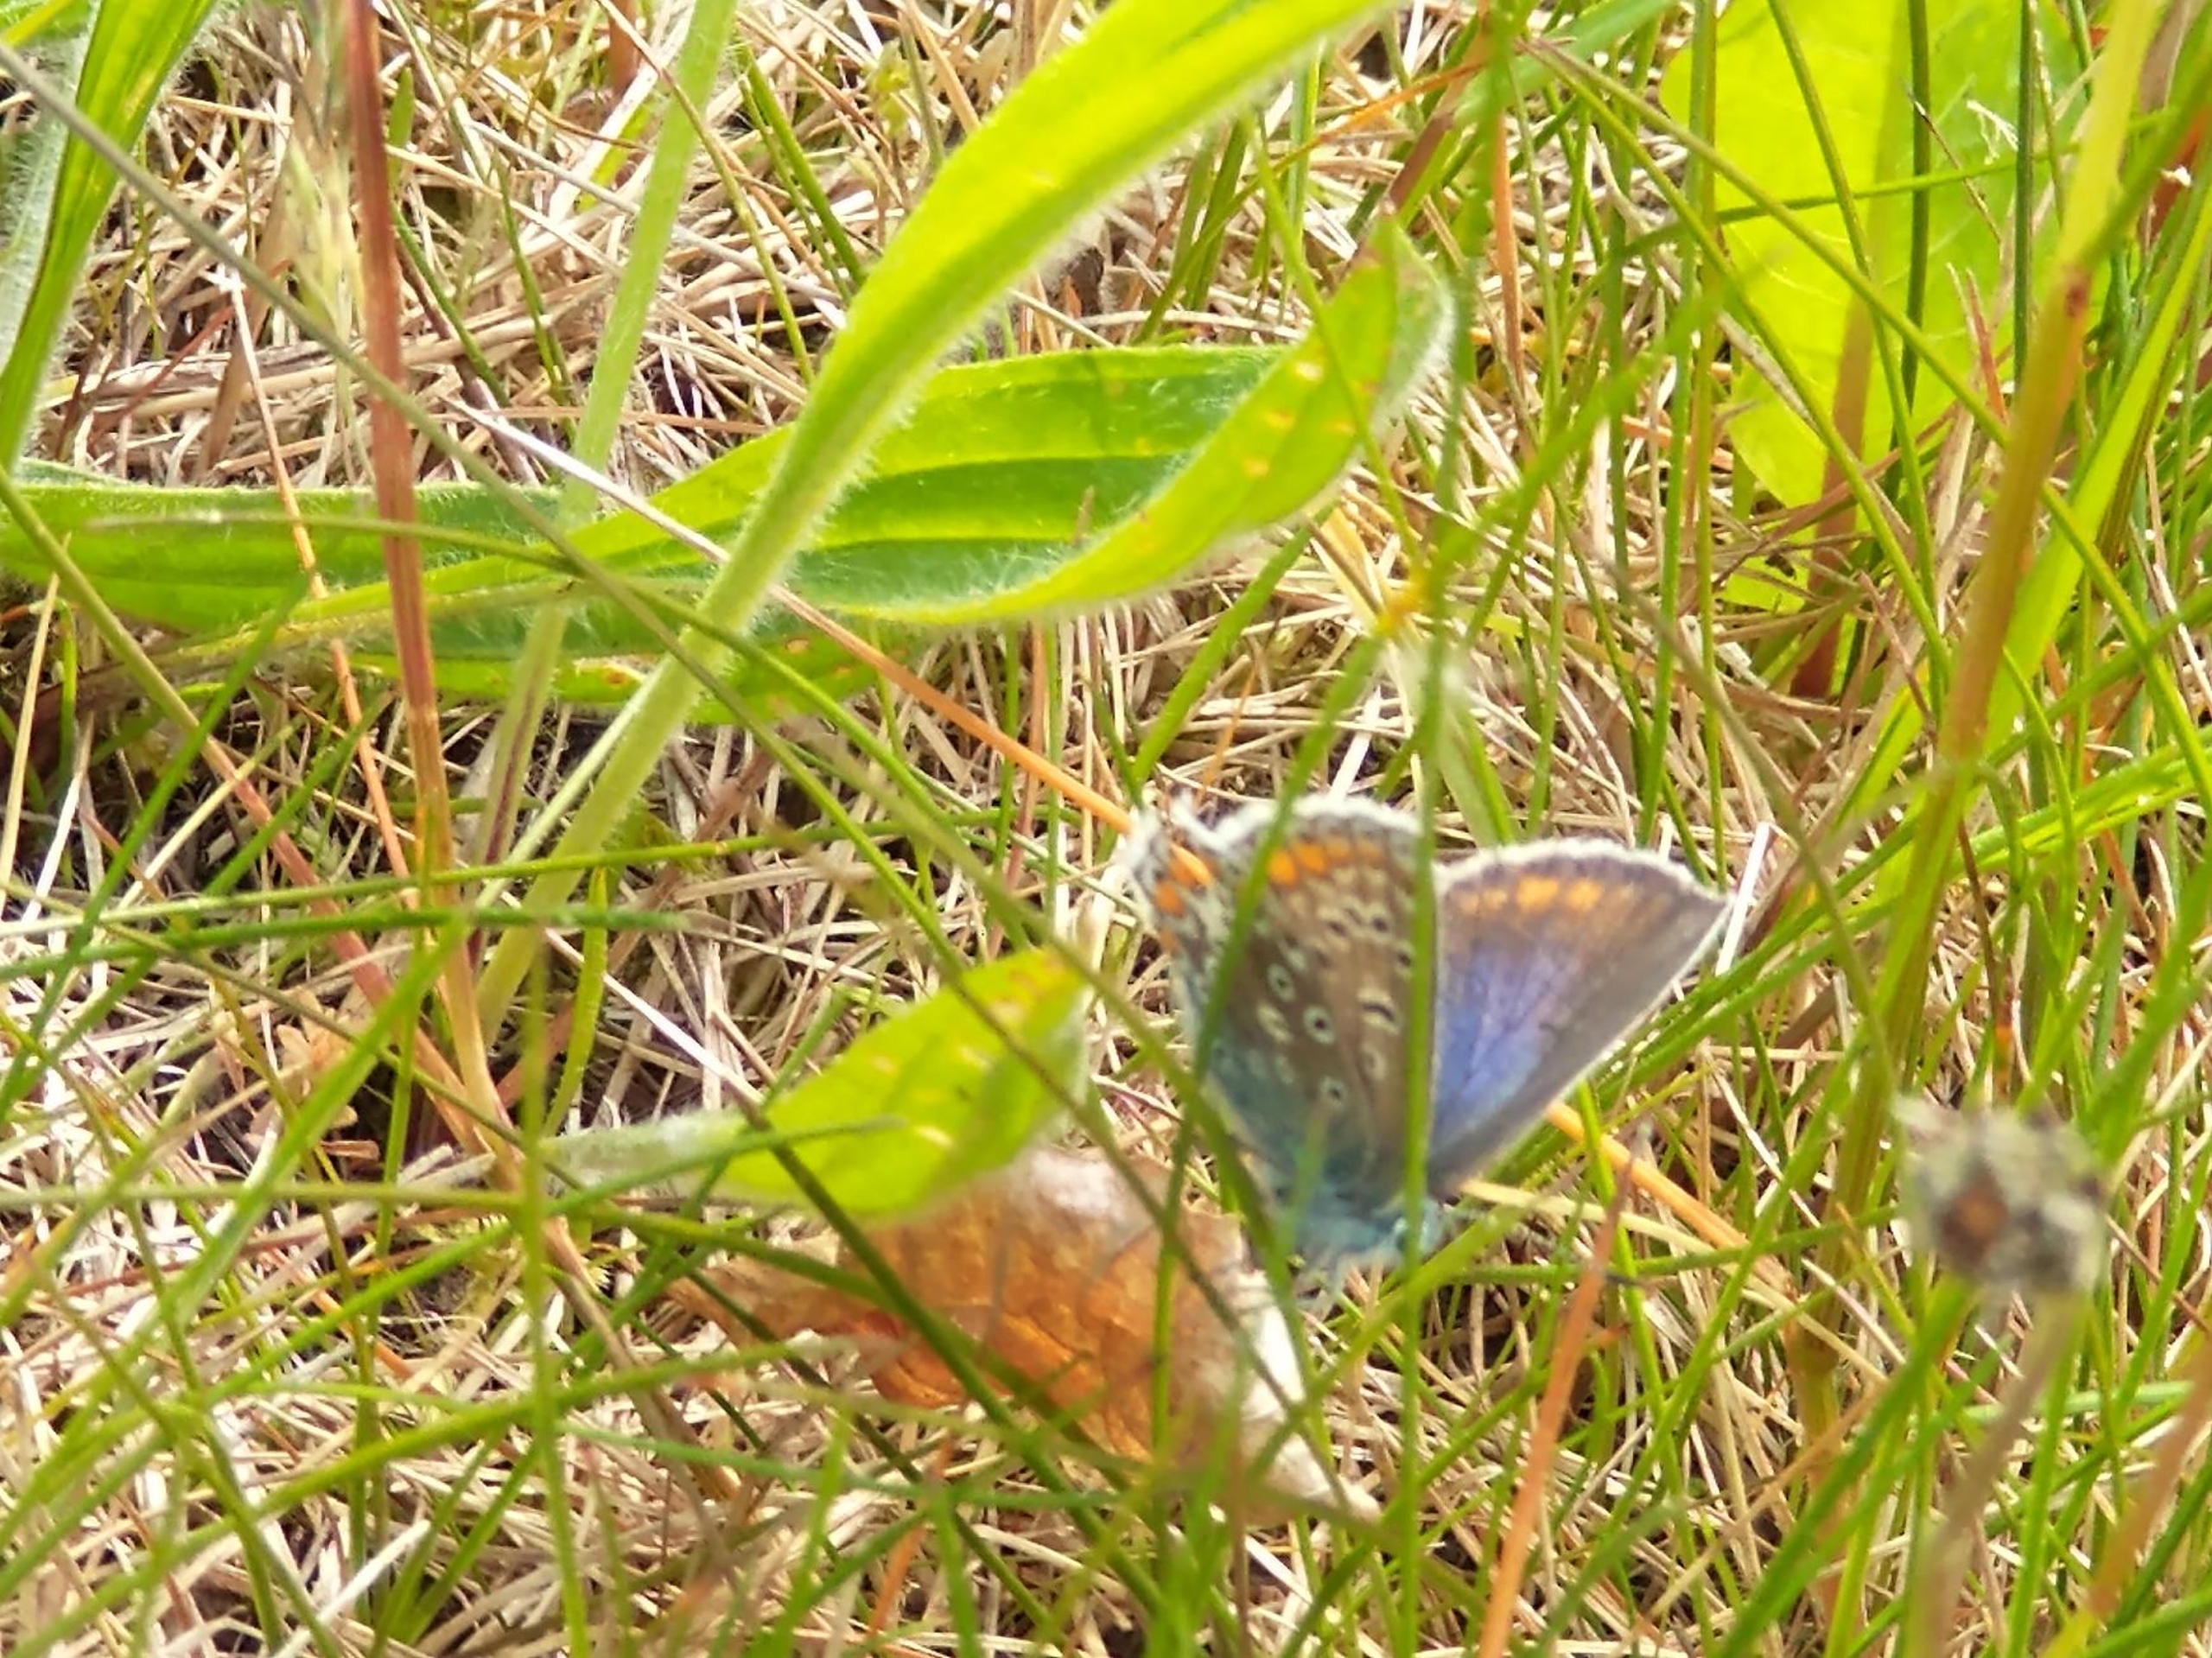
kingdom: Animalia
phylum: Arthropoda
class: Insecta
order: Lepidoptera
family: Lycaenidae
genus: Polyommatus
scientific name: Polyommatus icarus
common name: Almindelig blåfugl
